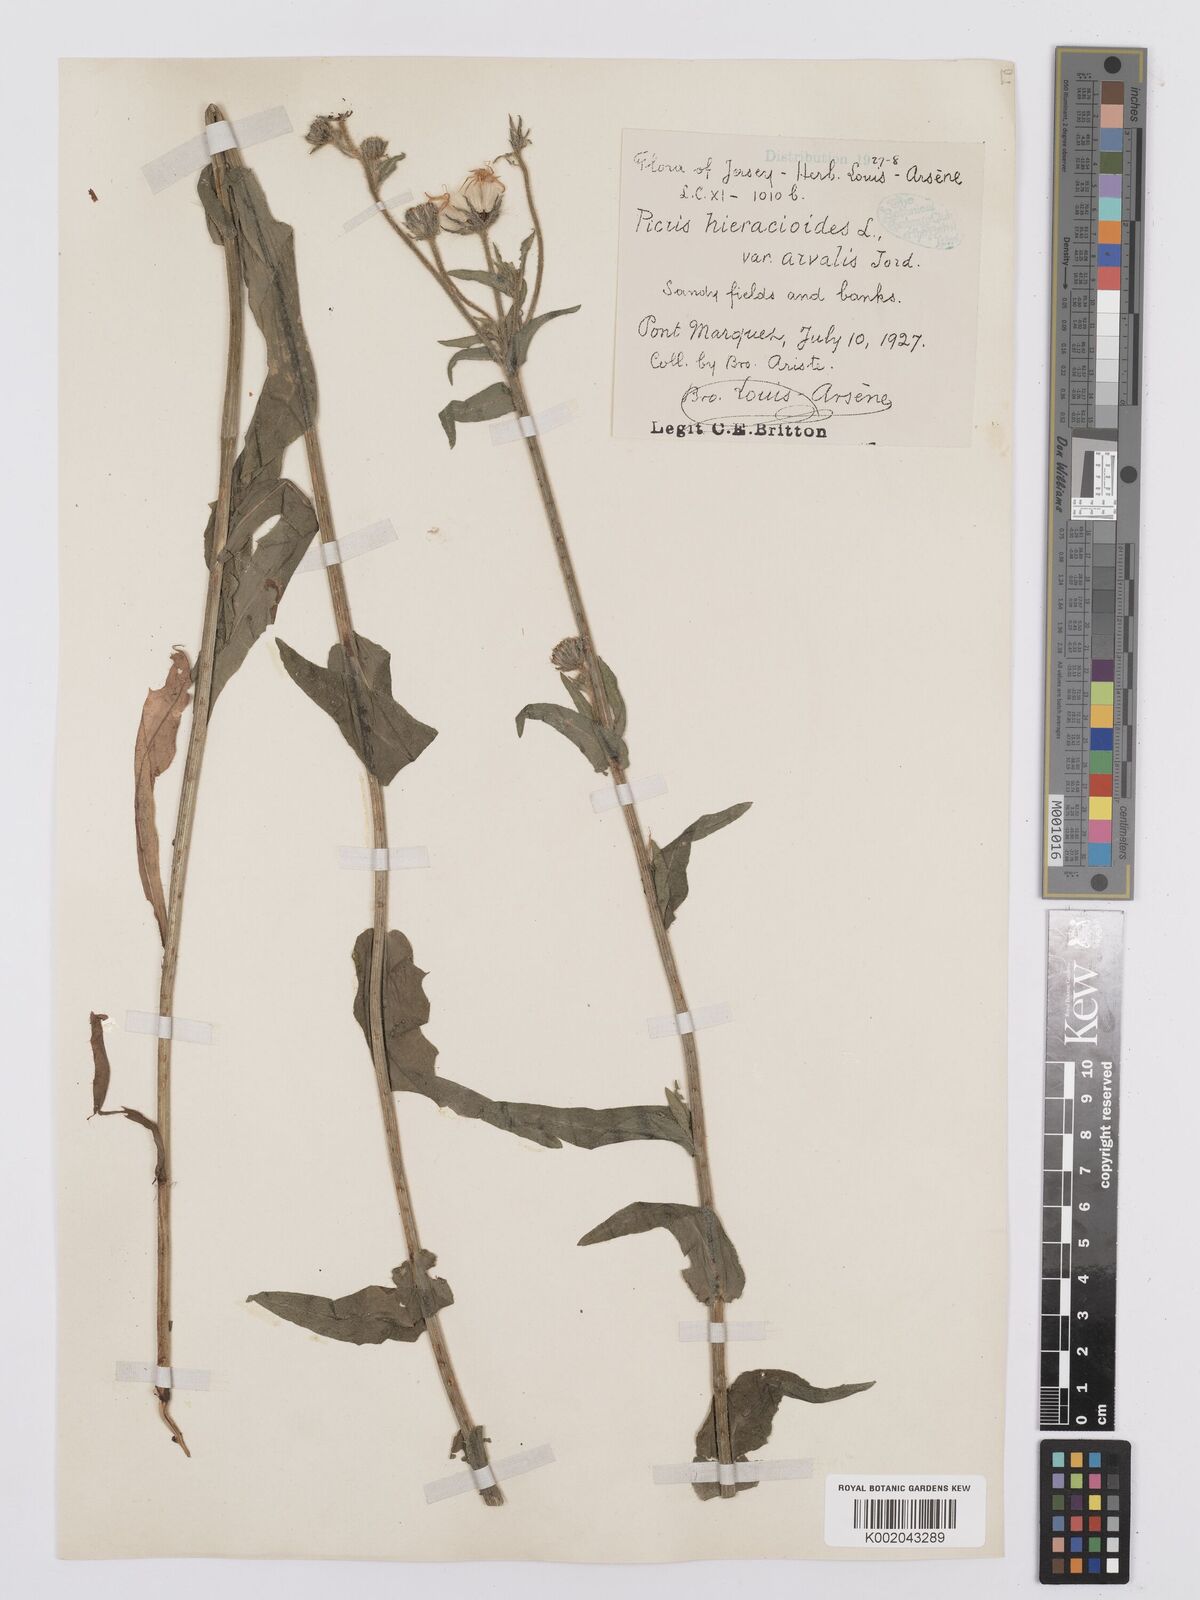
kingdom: Plantae
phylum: Tracheophyta
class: Magnoliopsida
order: Asterales
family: Asteraceae
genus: Picris
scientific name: Picris hieracioides
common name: Hawkweed oxtongue
